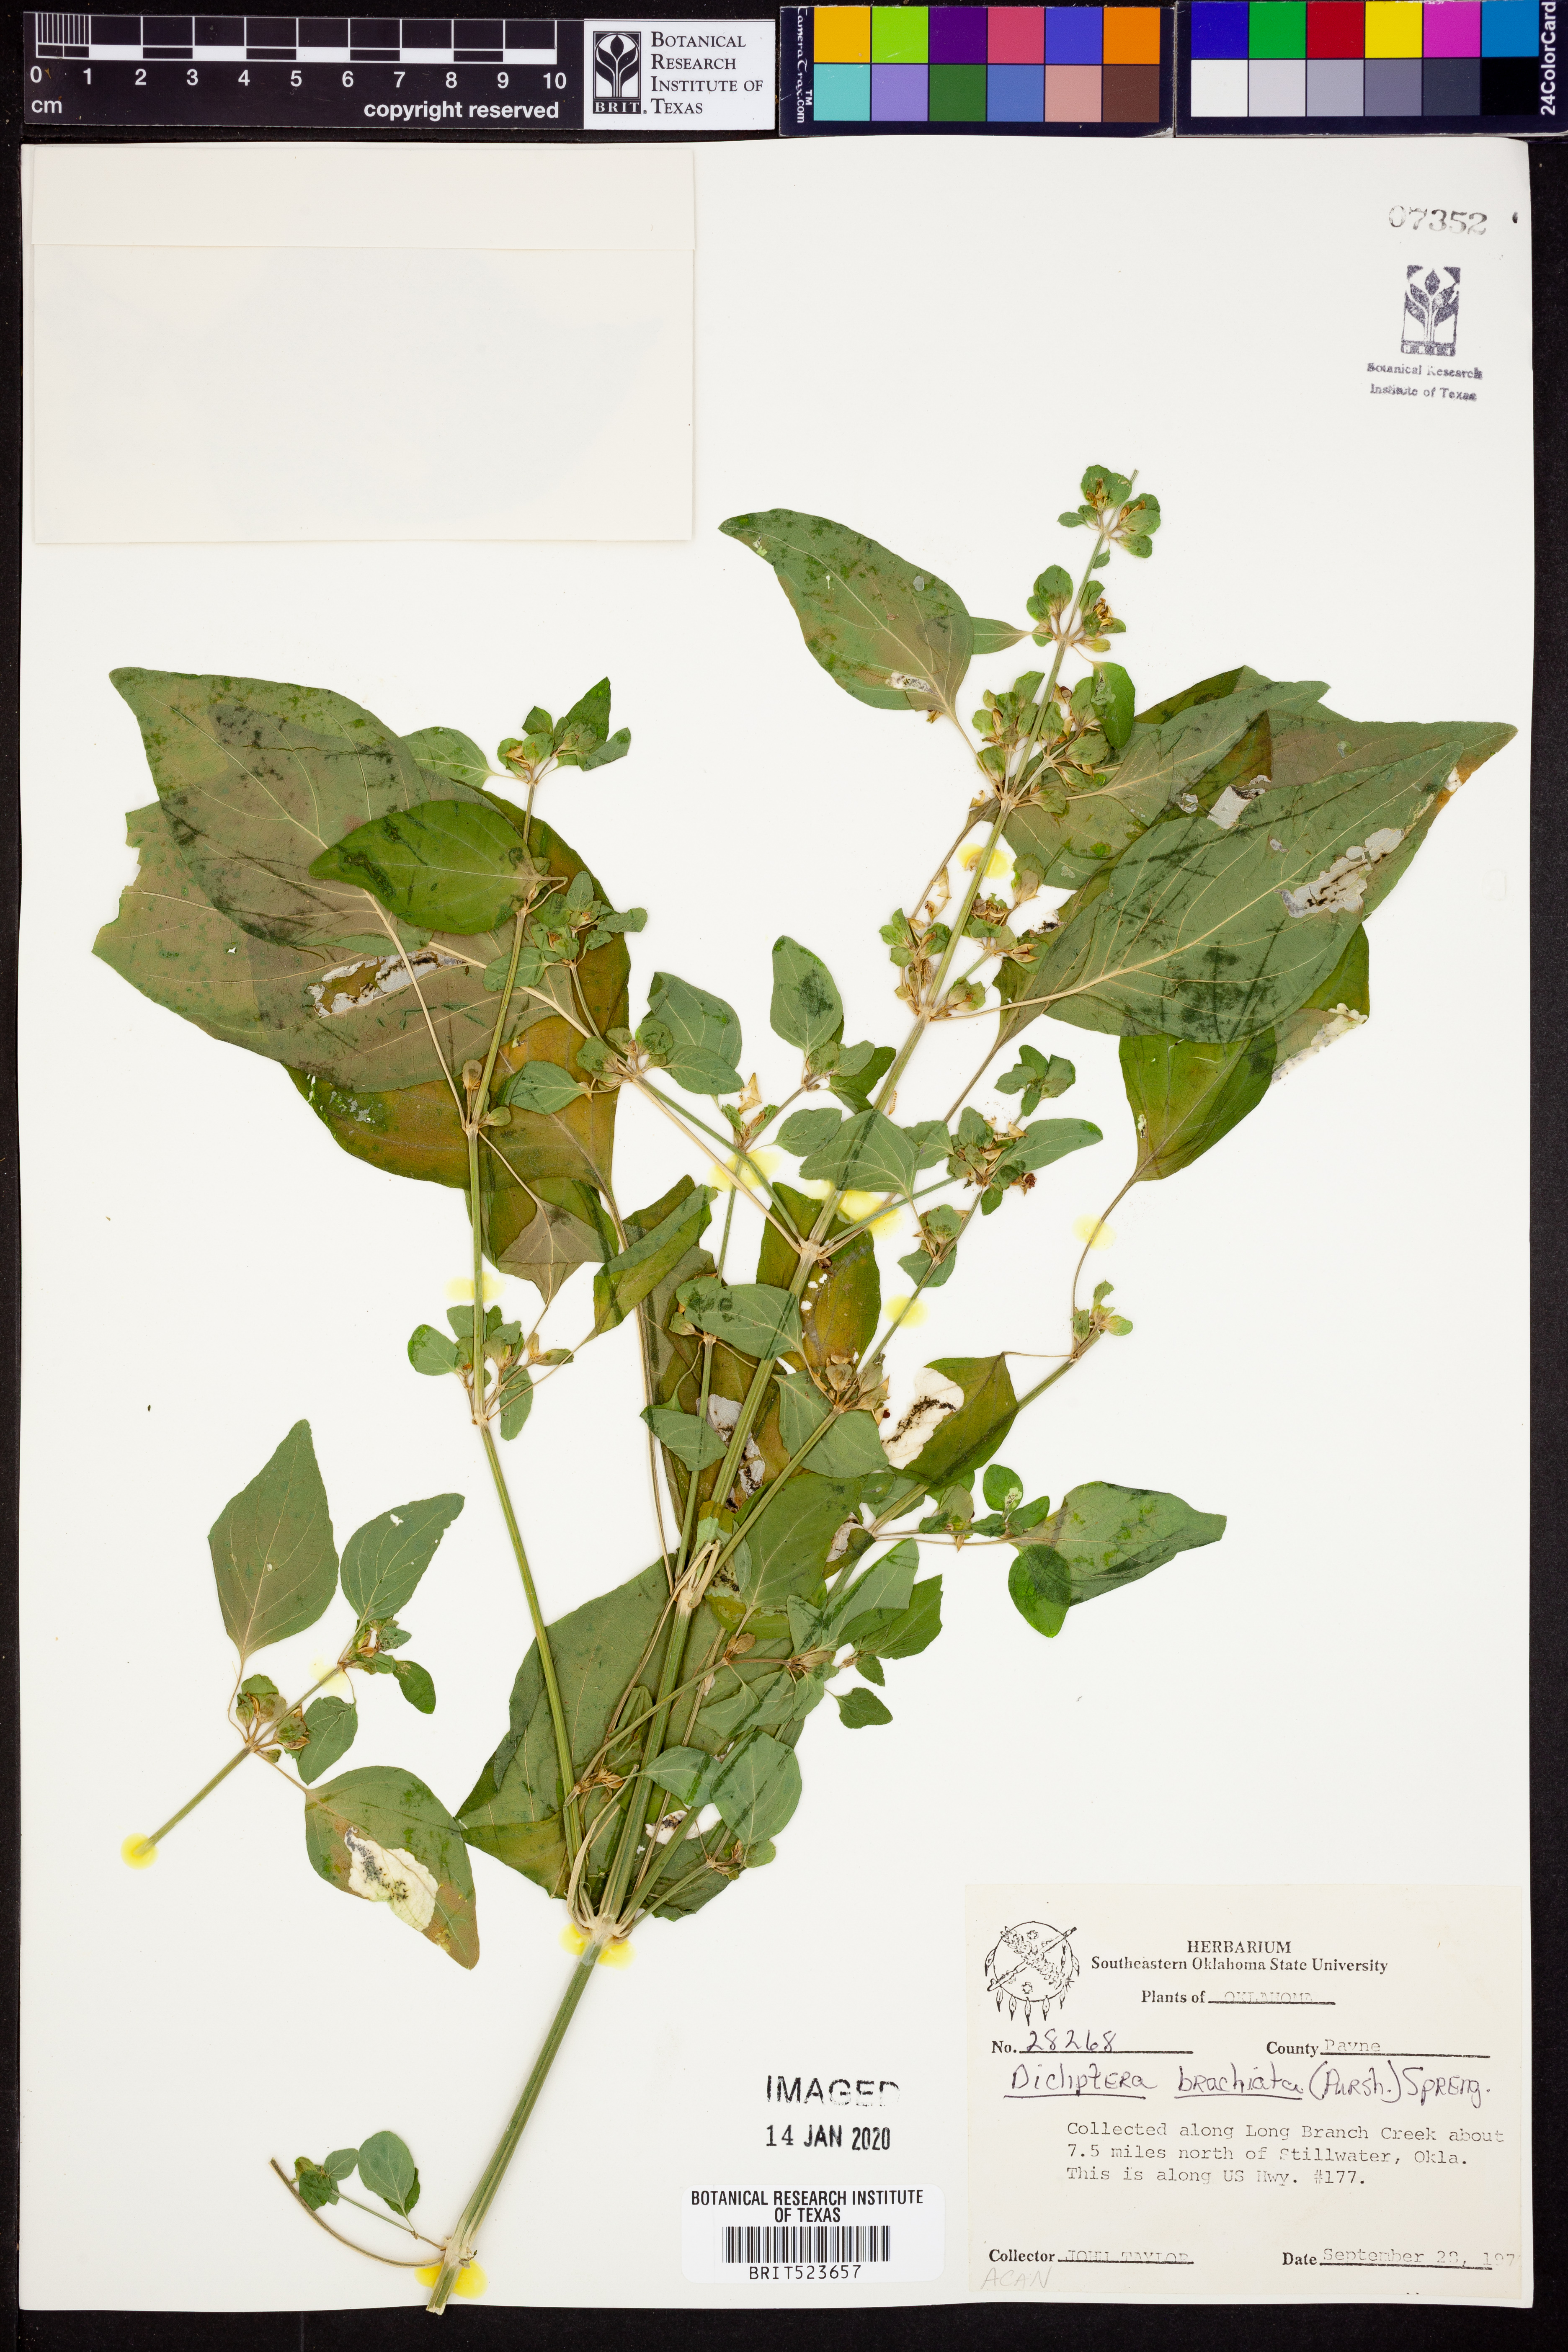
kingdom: Plantae
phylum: Tracheophyta
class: Magnoliopsida
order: Lamiales
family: Acanthaceae
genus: Dicliptera
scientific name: Dicliptera brachiata
